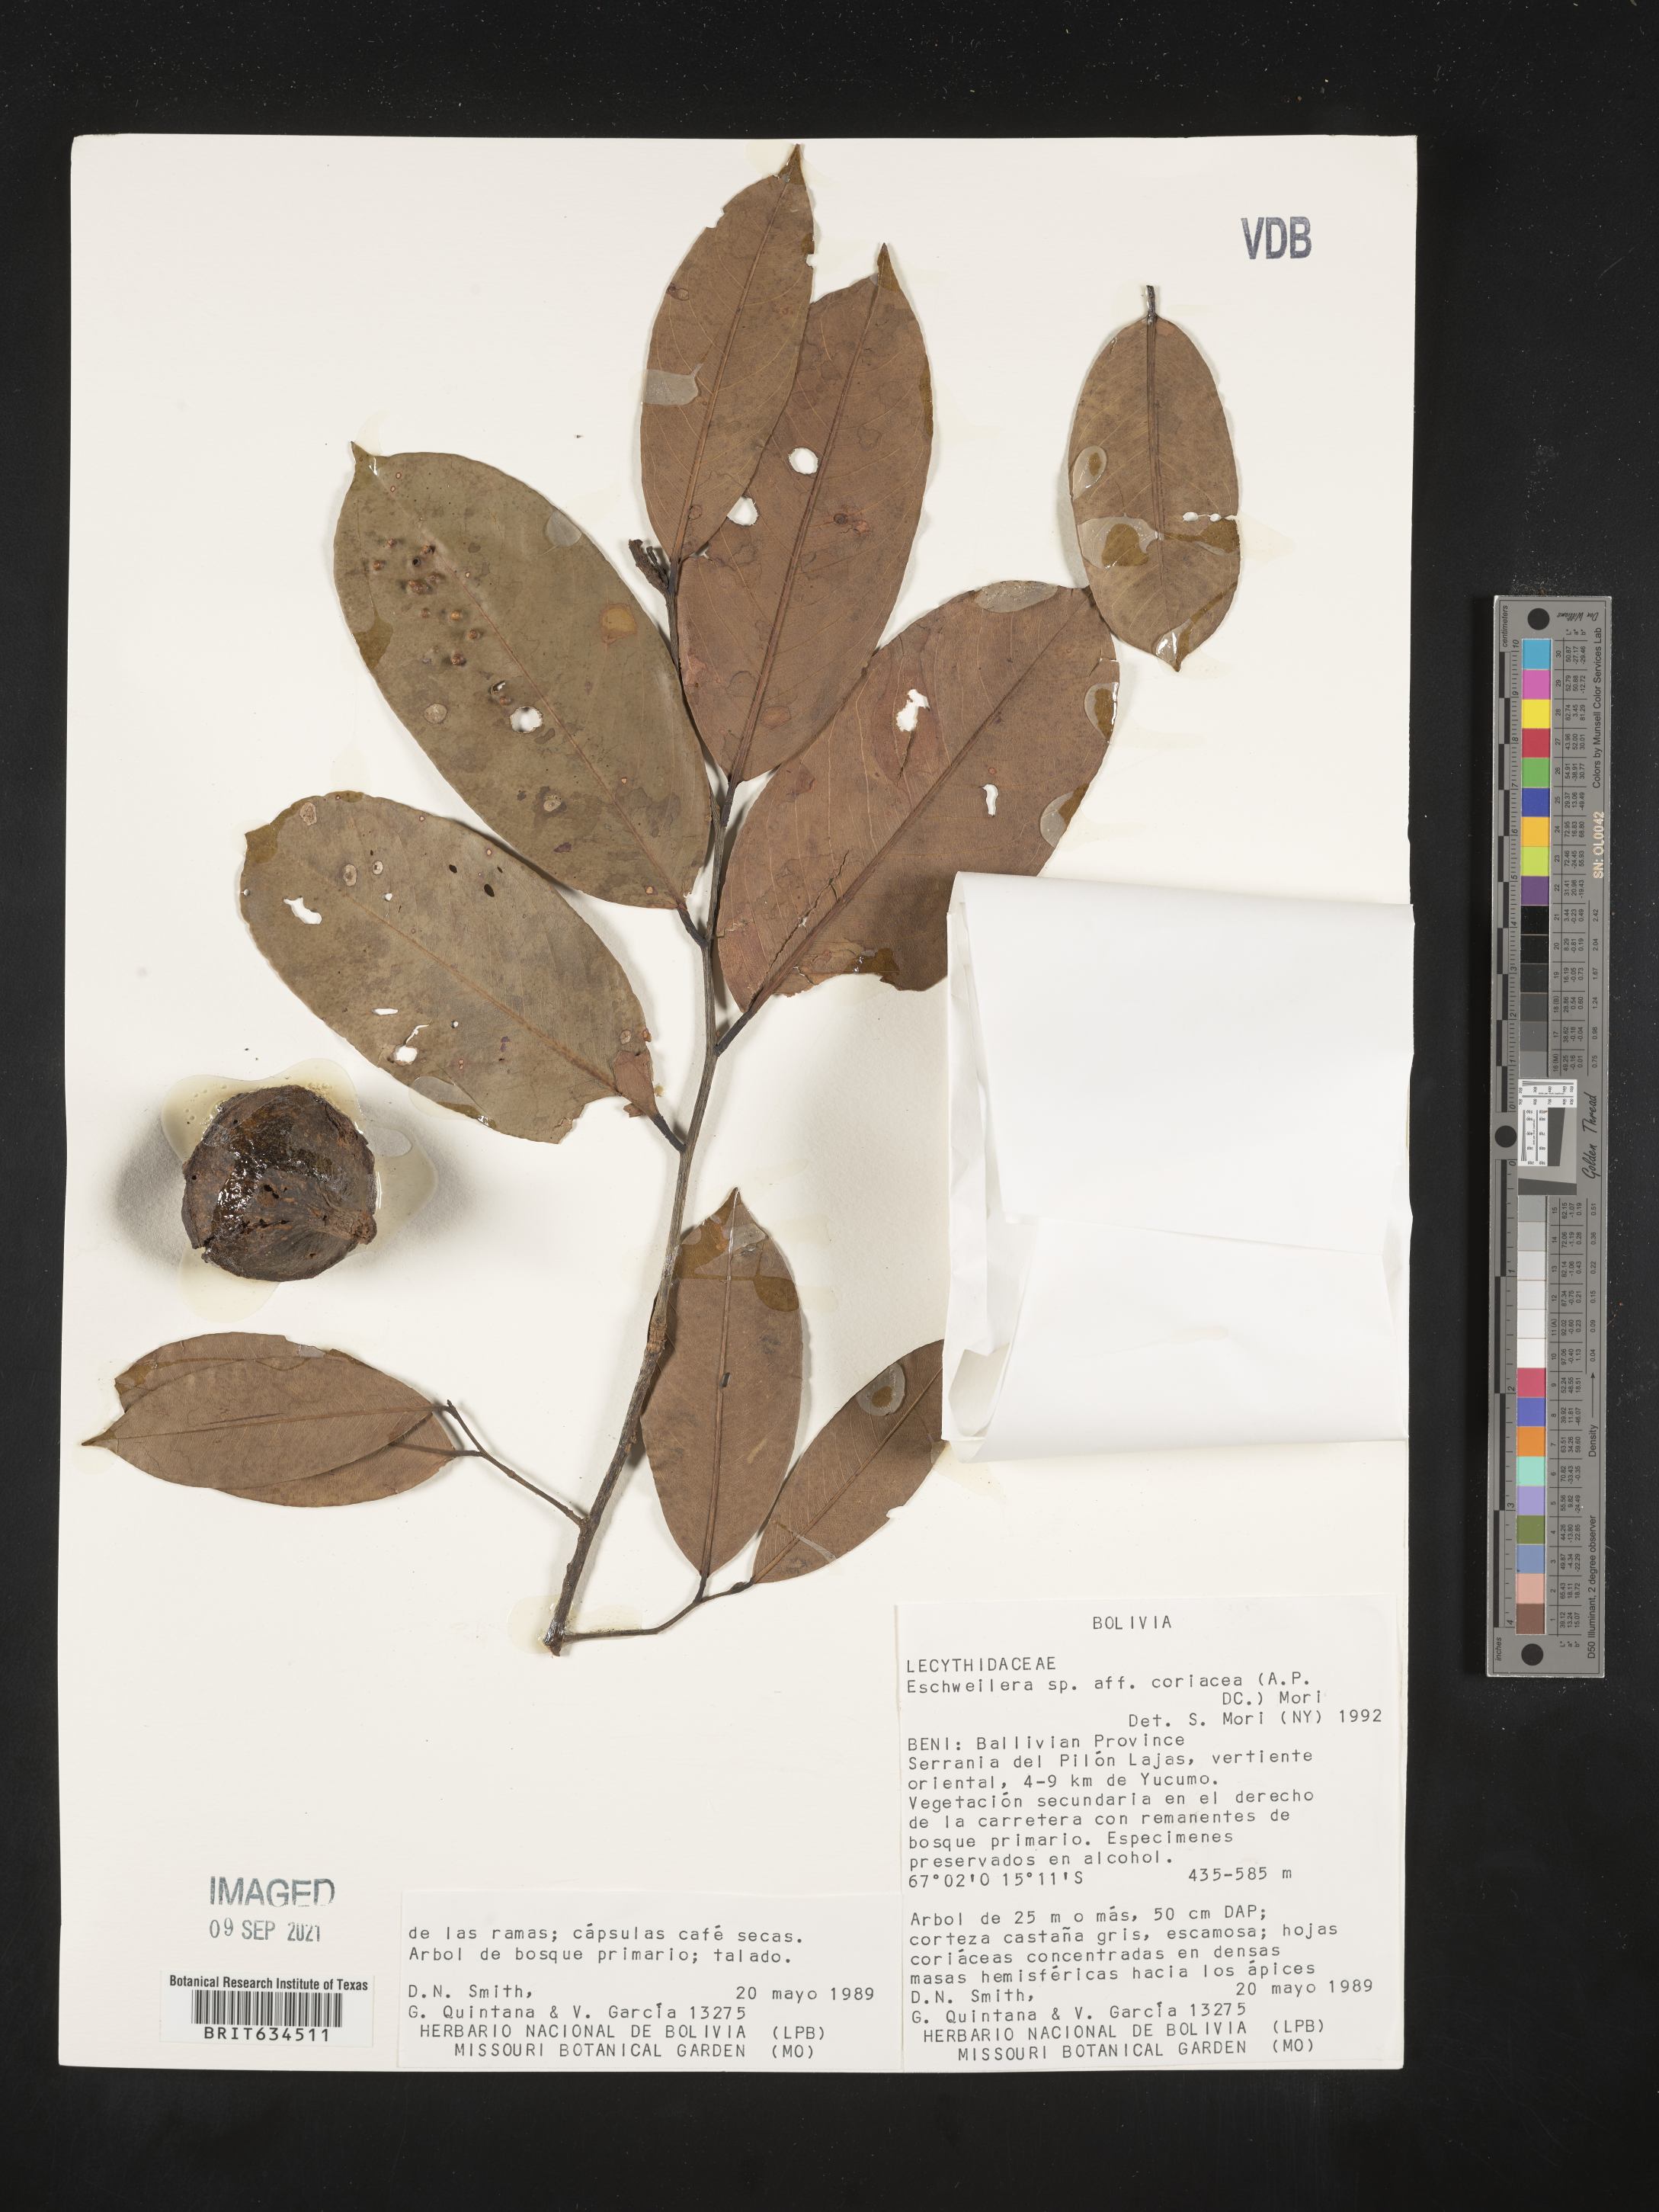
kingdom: Plantae
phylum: Tracheophyta
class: Magnoliopsida
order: Ericales
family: Lecythidaceae
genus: Eschweilera
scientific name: Eschweilera
